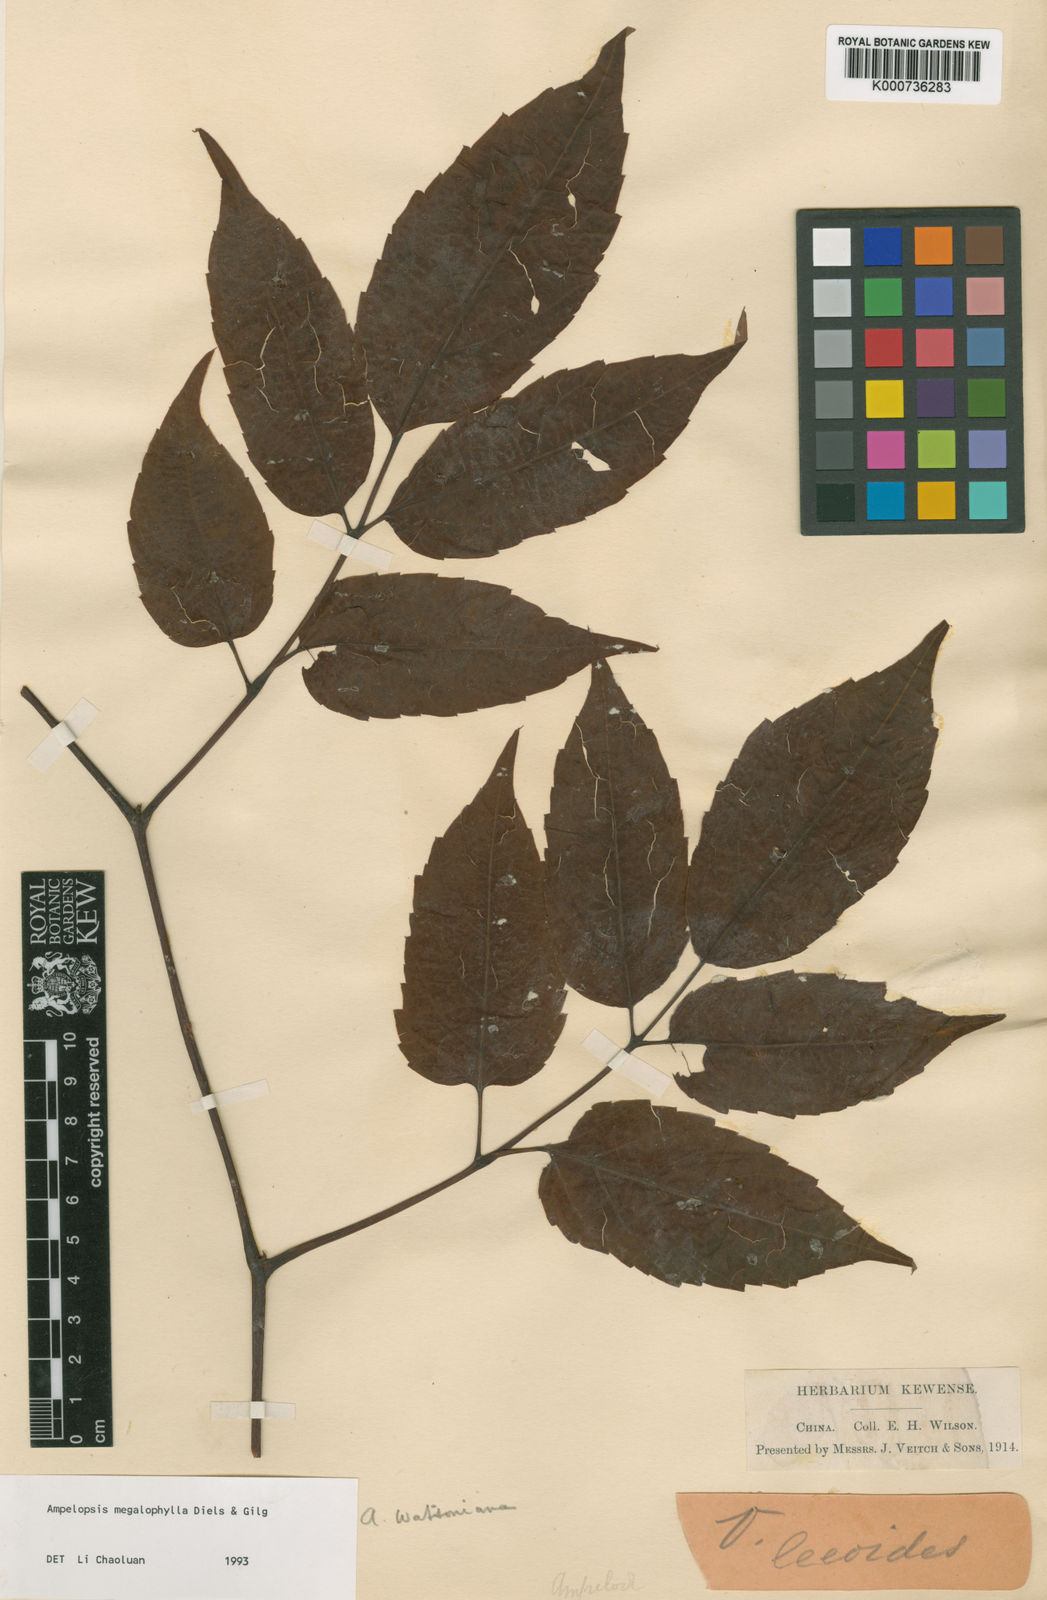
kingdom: Plantae
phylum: Tracheophyta
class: Magnoliopsida
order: Vitales
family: Vitaceae
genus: Nekemias
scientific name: Nekemias megalophylla
